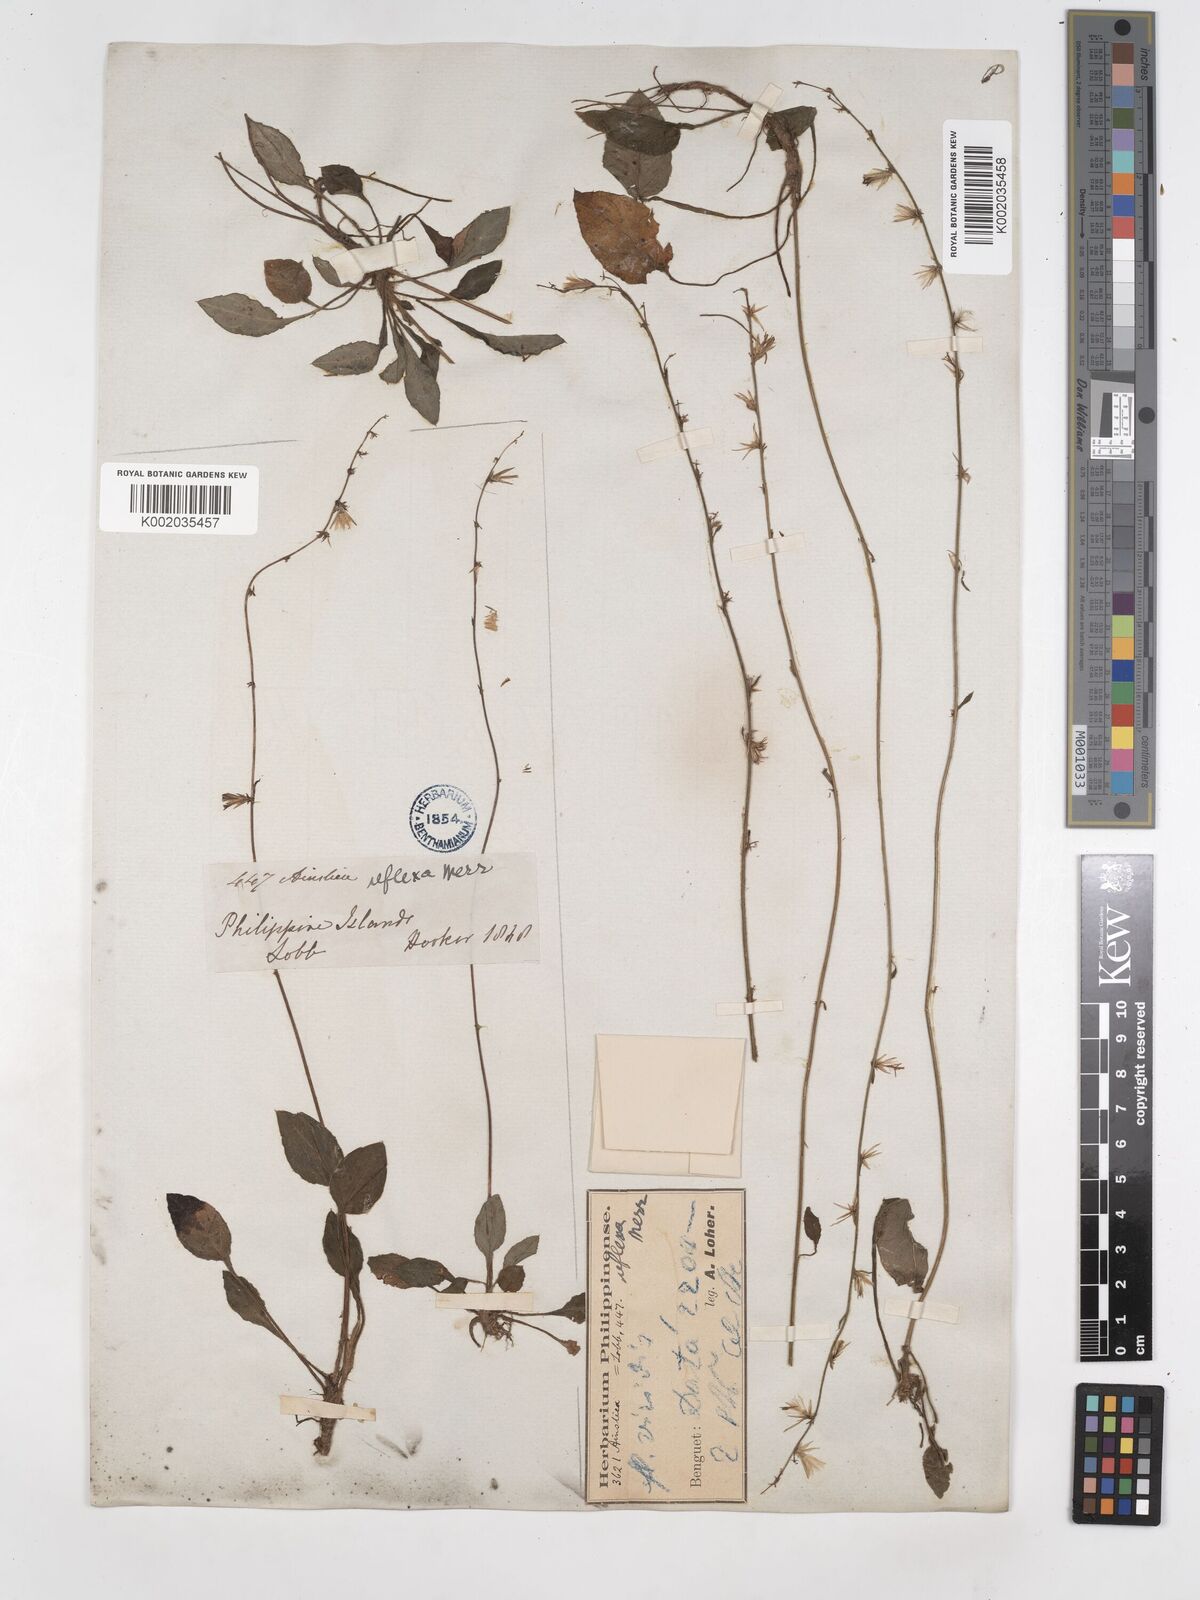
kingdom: Plantae
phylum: Tracheophyta
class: Magnoliopsida
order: Asterales
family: Asteraceae
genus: Ainsliaea
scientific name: Ainsliaea reflexa
